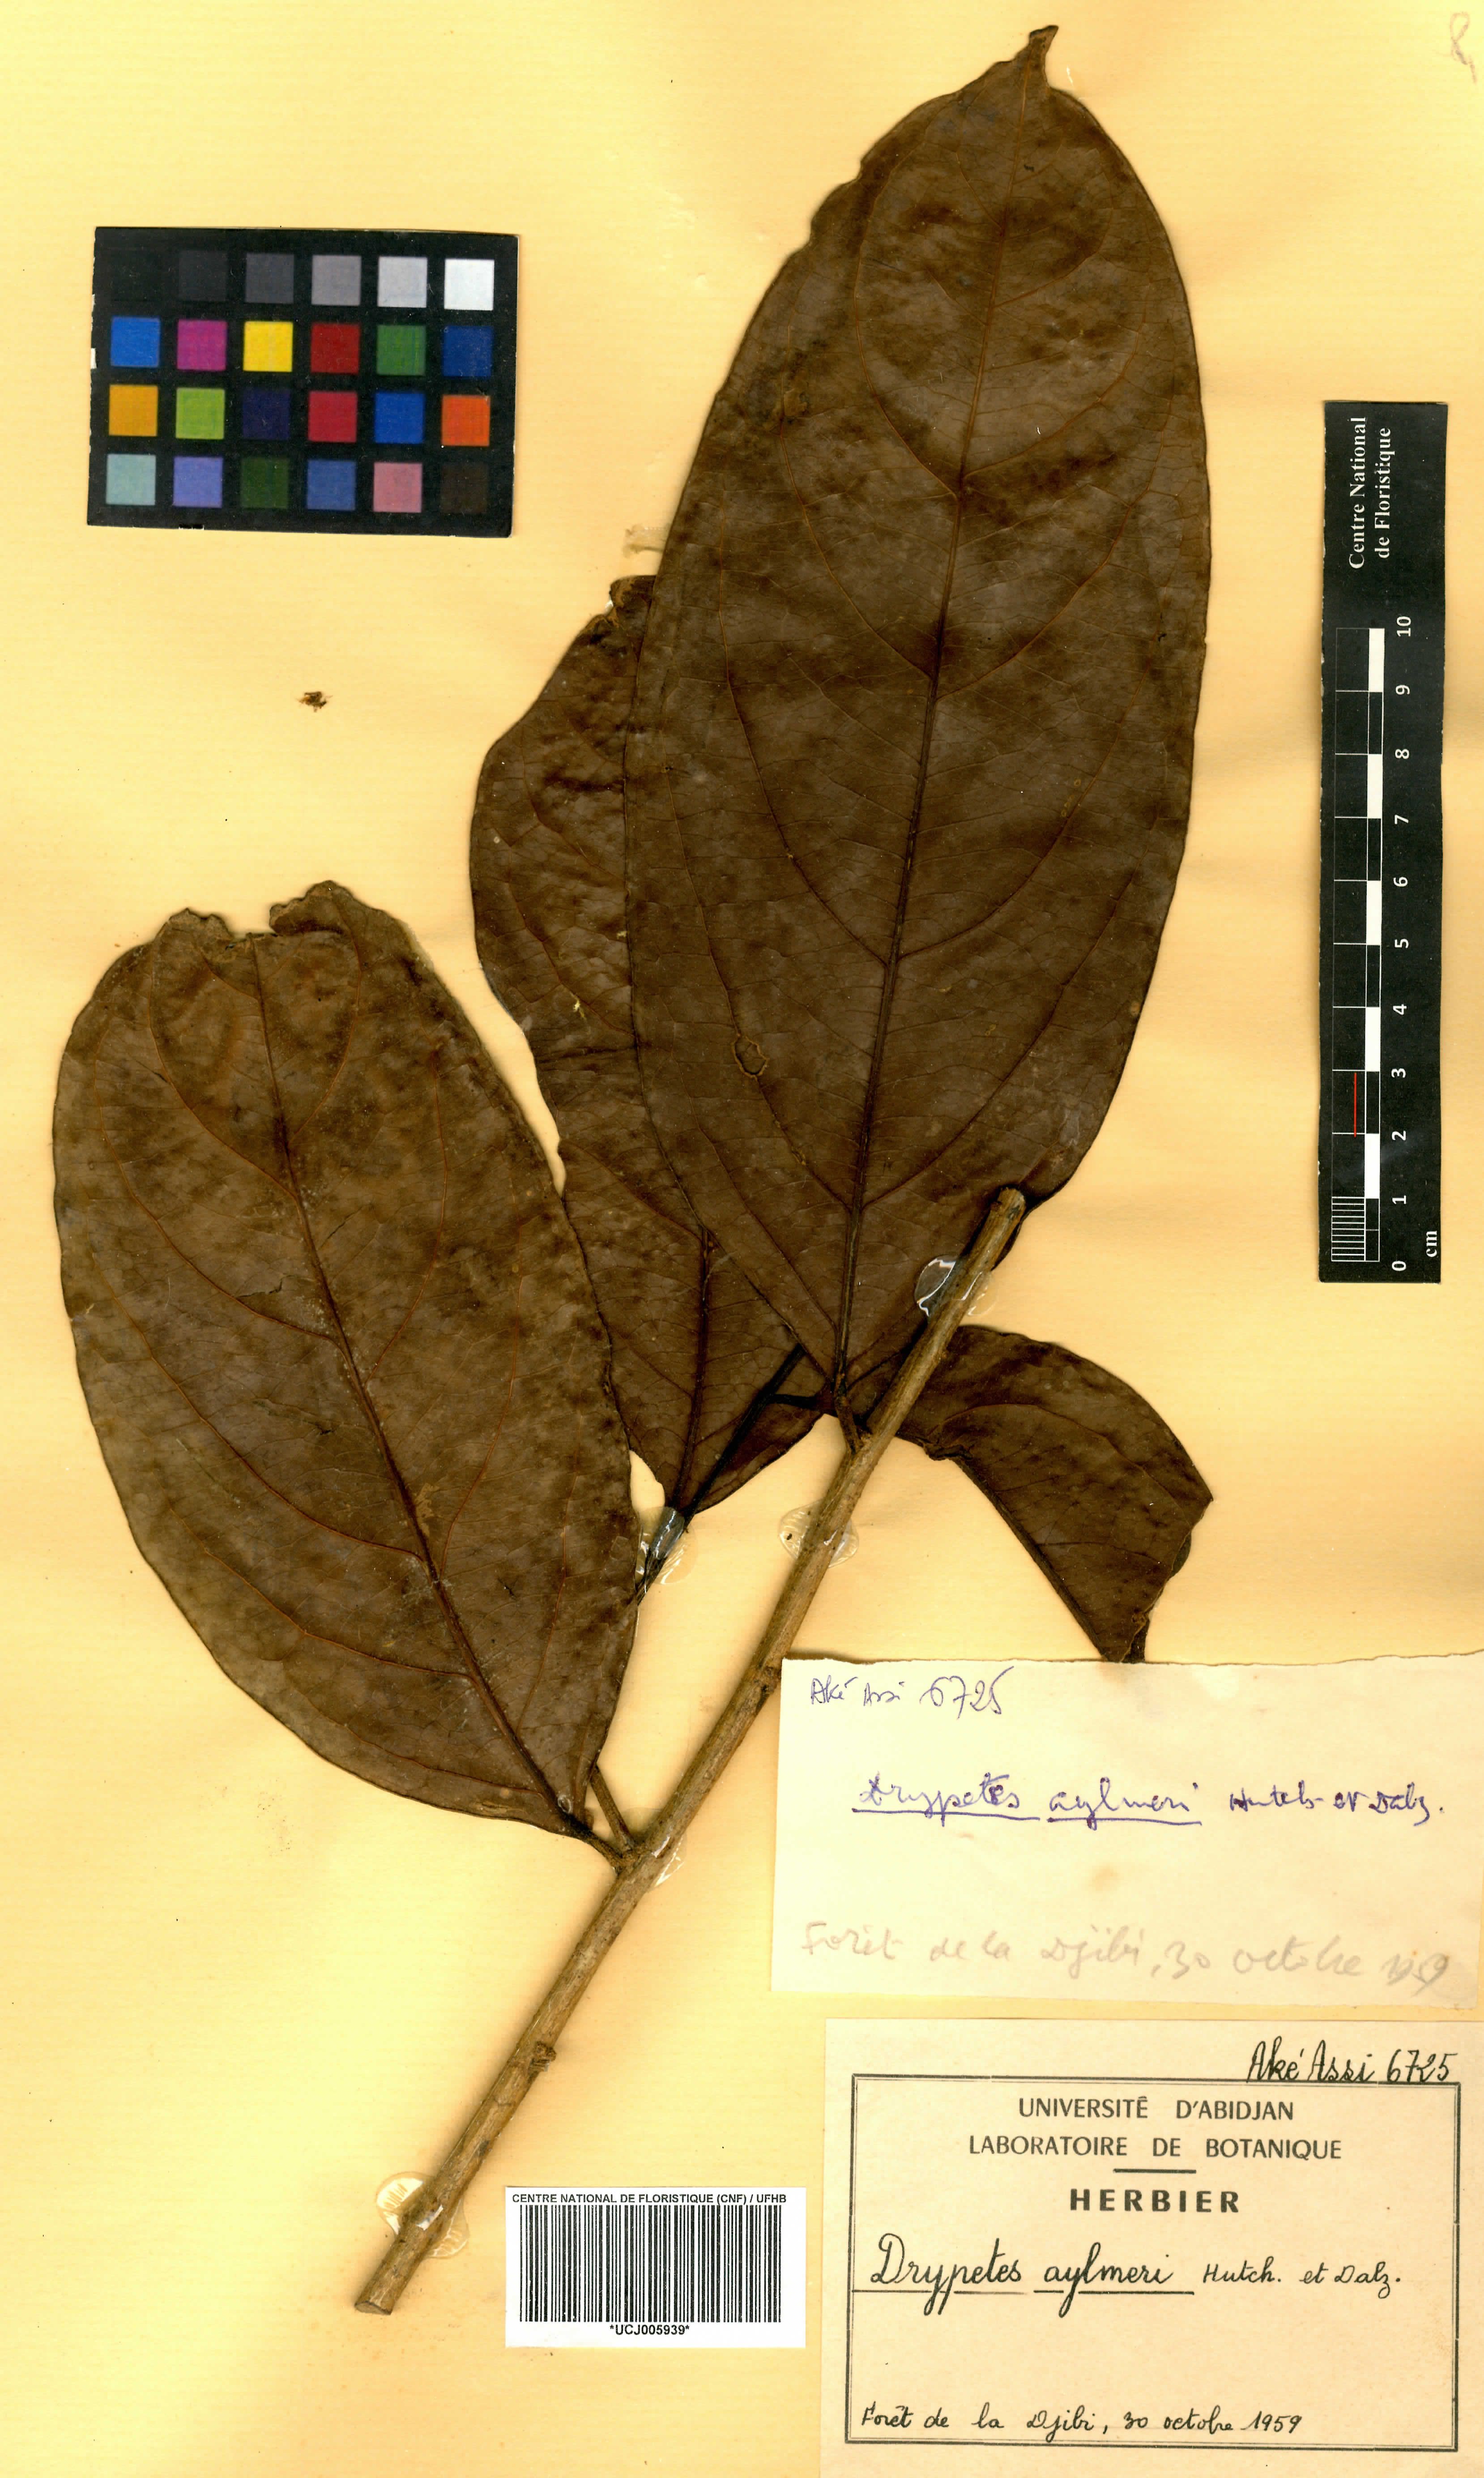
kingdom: Plantae
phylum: Tracheophyta
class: Magnoliopsida
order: Malpighiales
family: Putranjivaceae
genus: Drypetes
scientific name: Drypetes aylmeri
